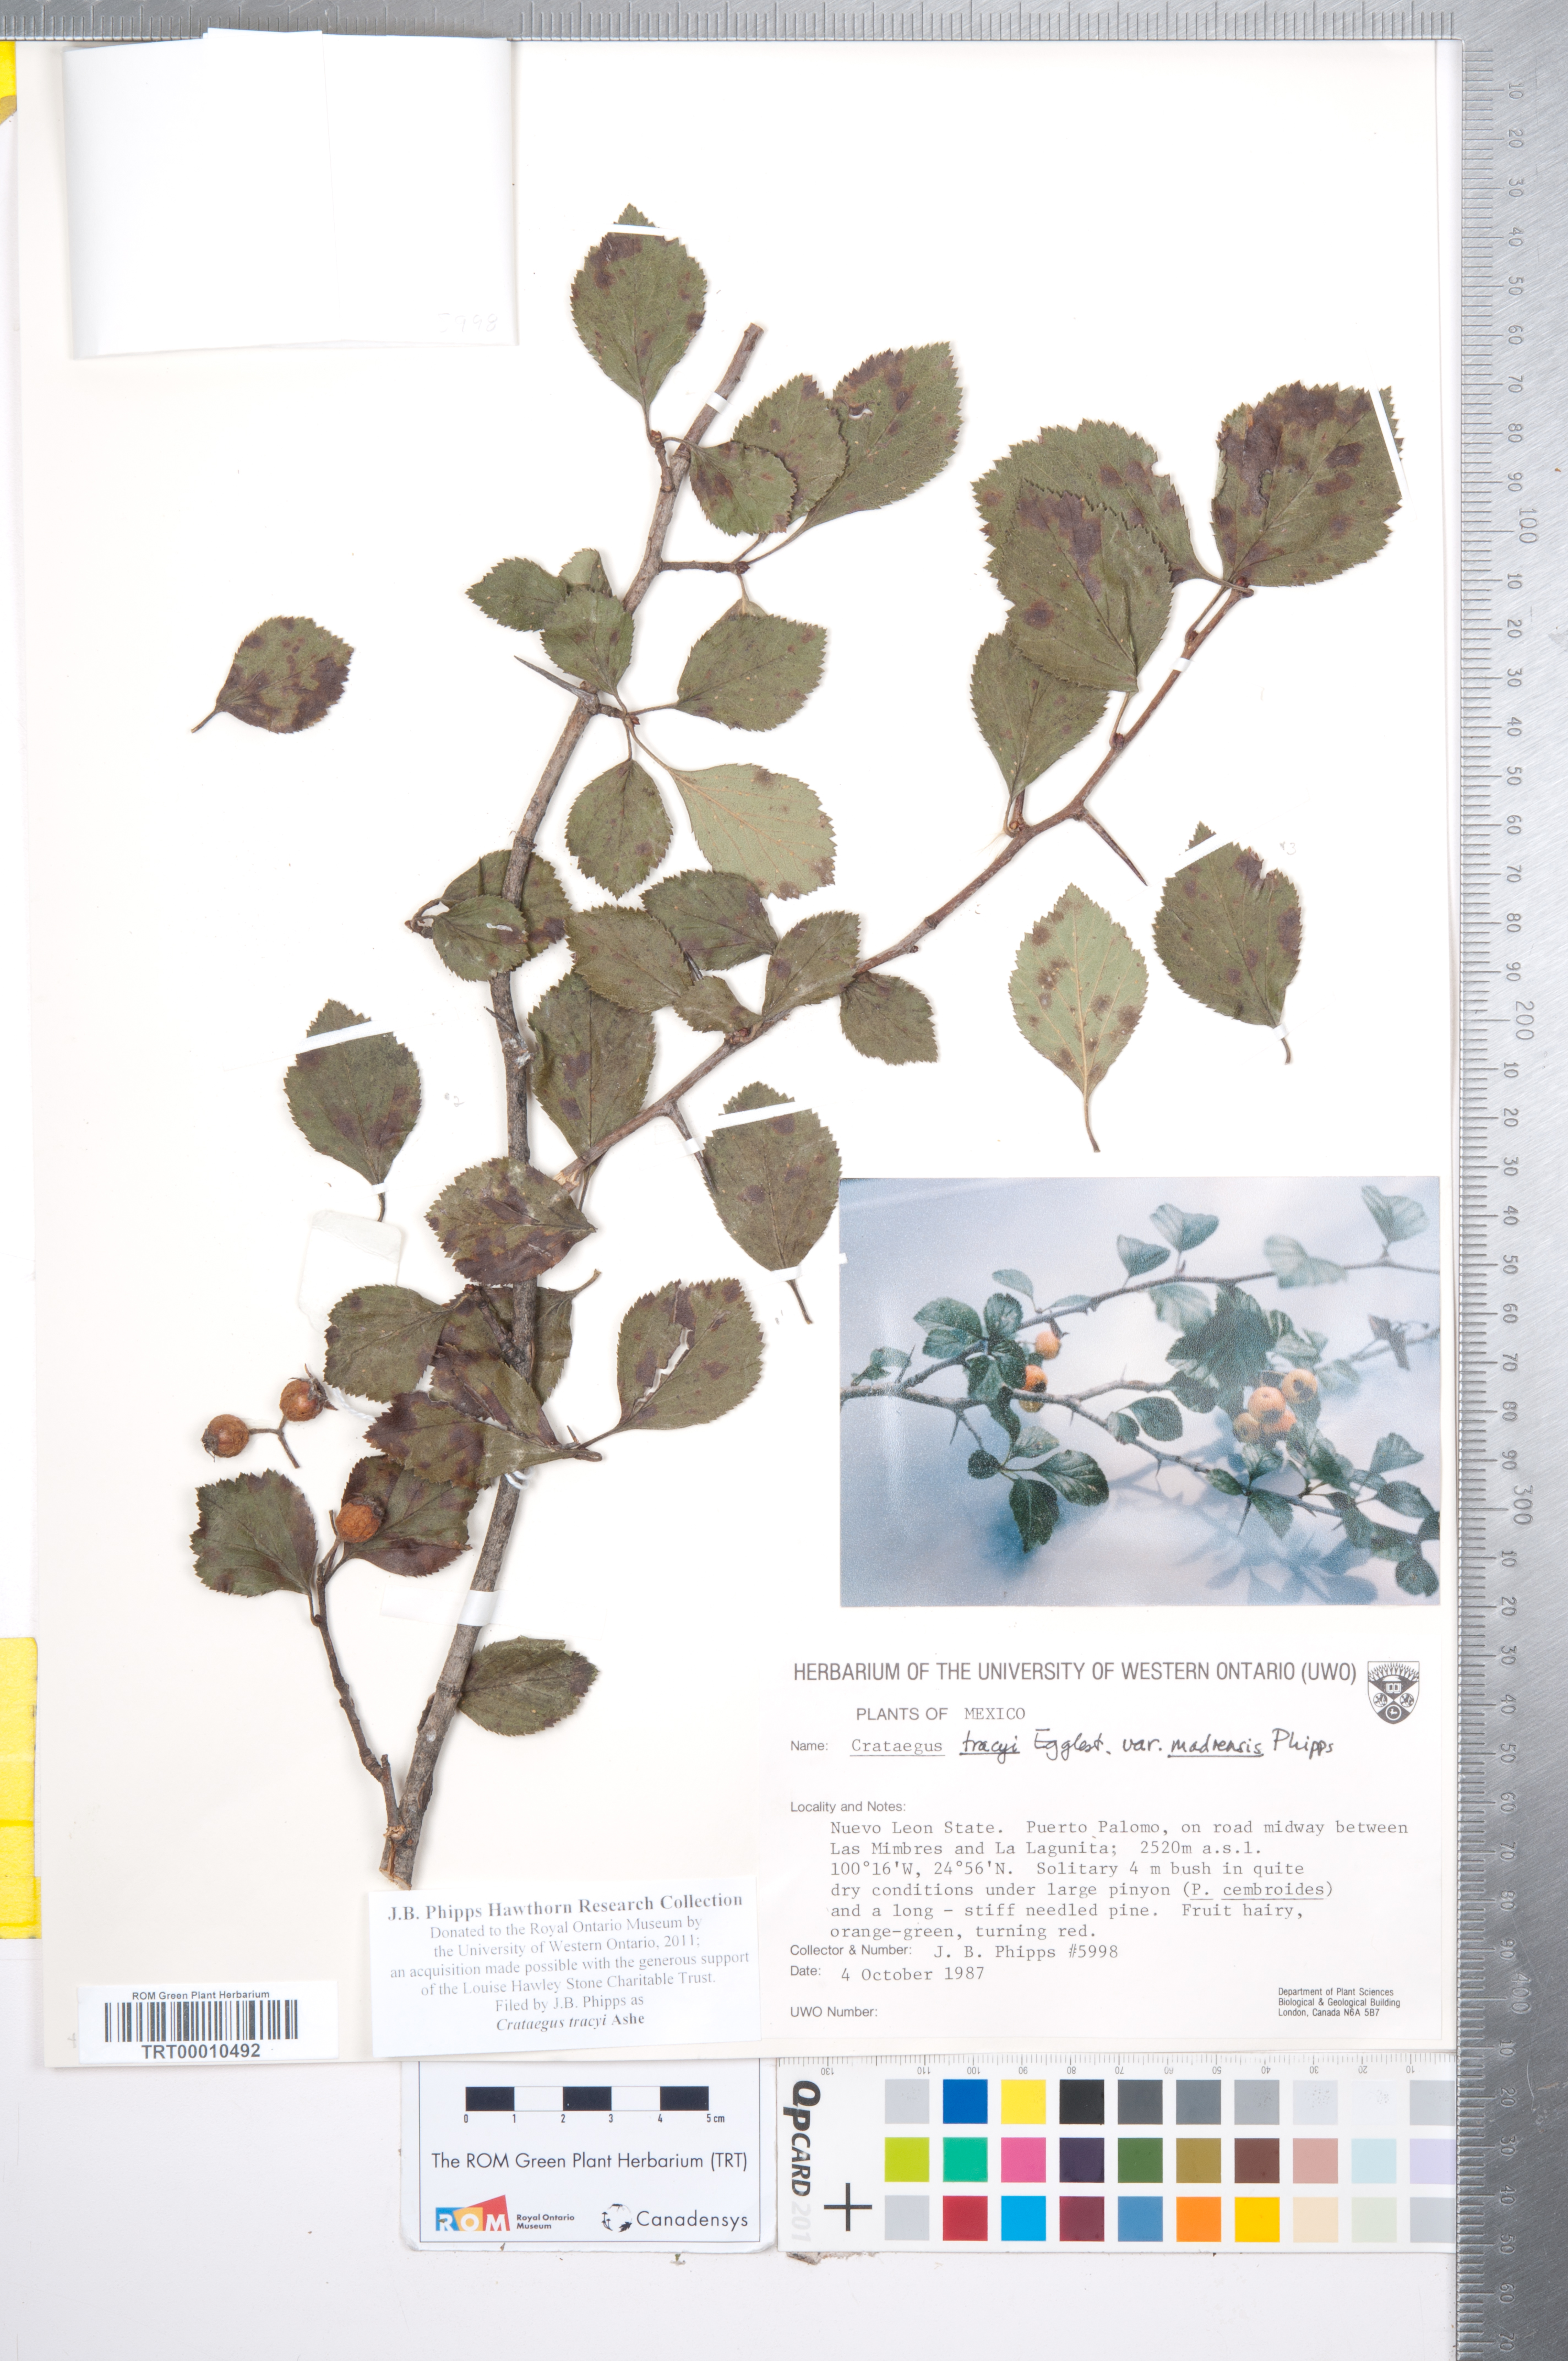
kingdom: Plantae
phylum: Tracheophyta
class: Magnoliopsida
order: Rosales
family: Rosaceae
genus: Crataegus
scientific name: Crataegus tracyi
